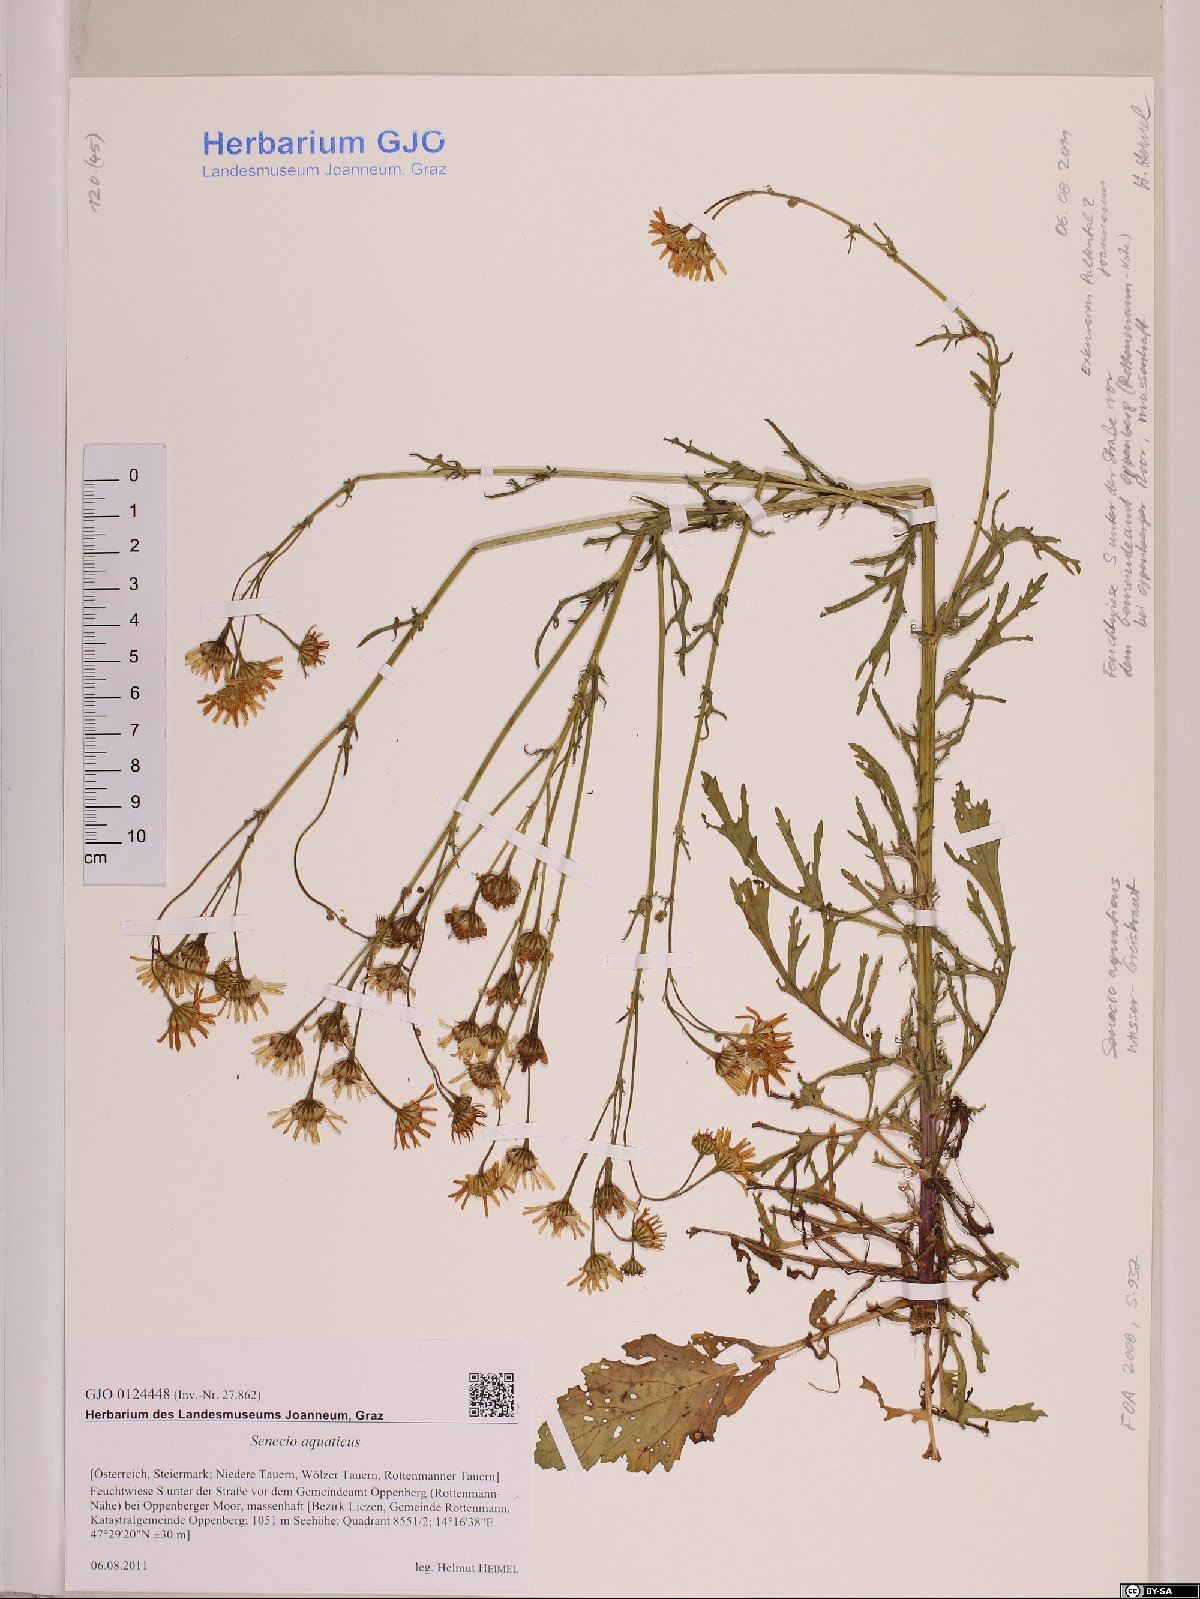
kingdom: Plantae
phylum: Tracheophyta
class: Magnoliopsida
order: Asterales
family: Asteraceae
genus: Jacobaea
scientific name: Jacobaea aquatica
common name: Water ragwort
